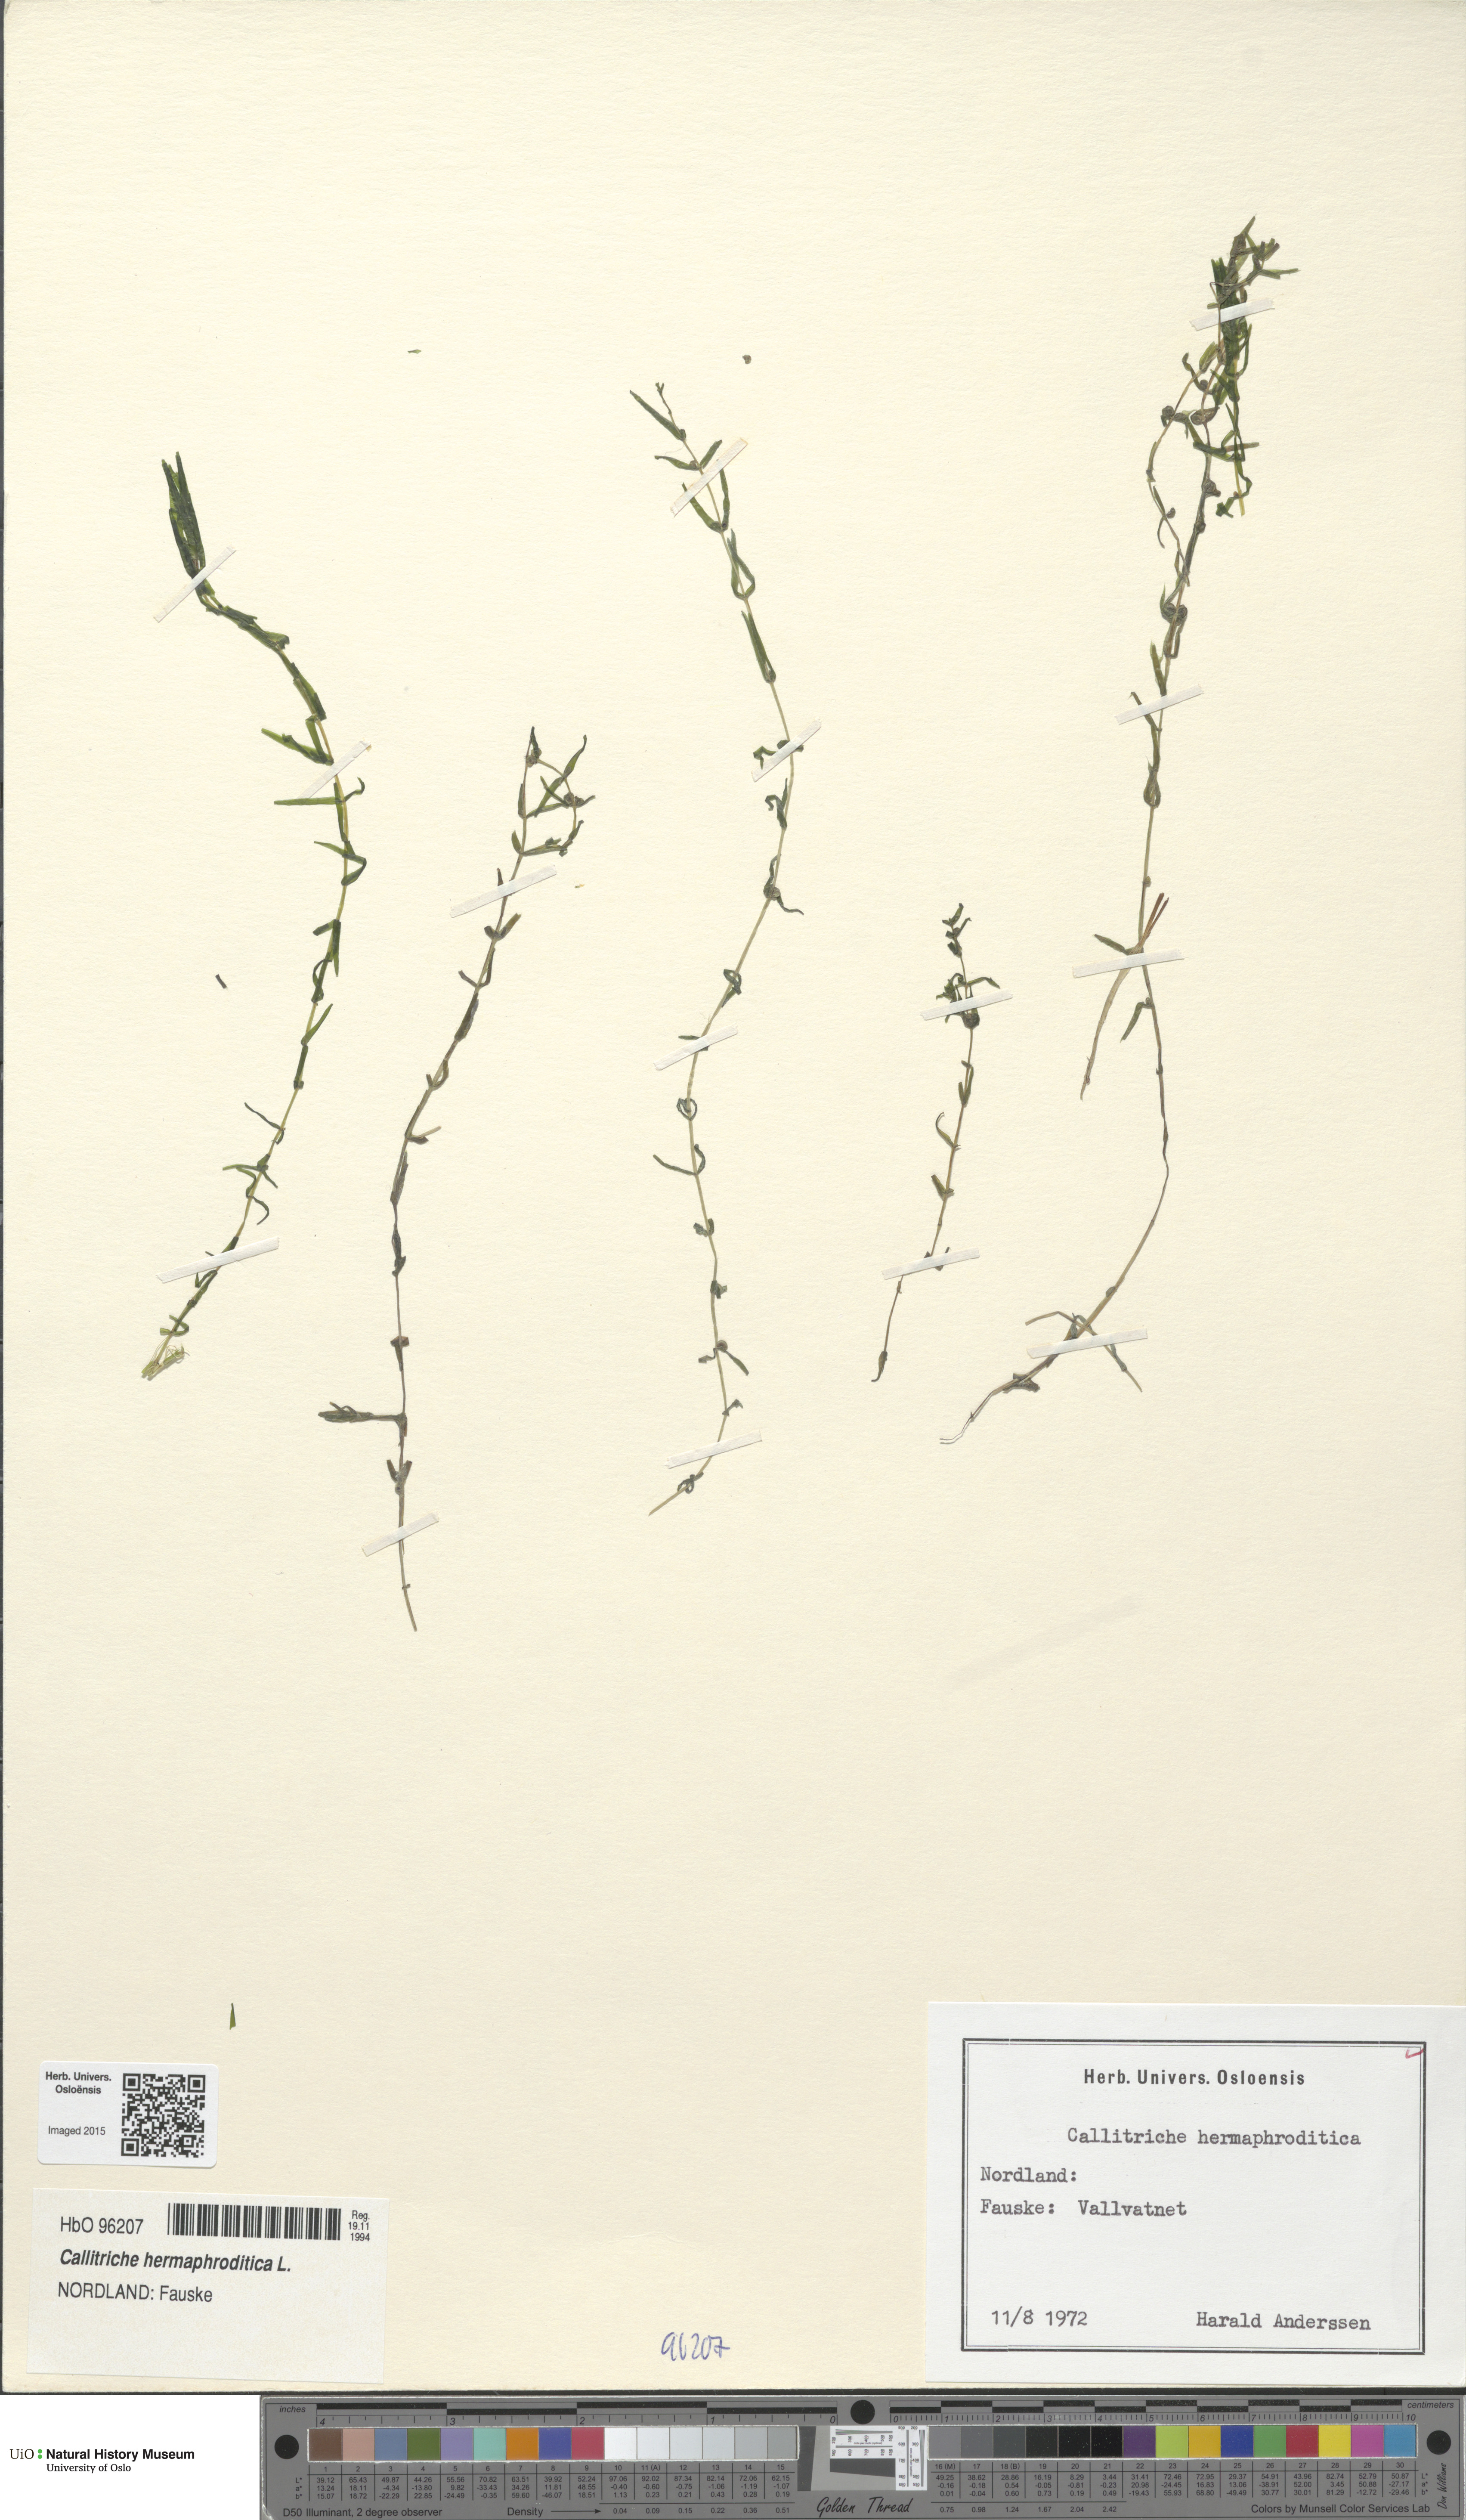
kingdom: Plantae
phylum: Tracheophyta
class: Magnoliopsida
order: Lamiales
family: Plantaginaceae
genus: Callitriche
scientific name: Callitriche hermaphroditica
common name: Autumnal water-starwort
